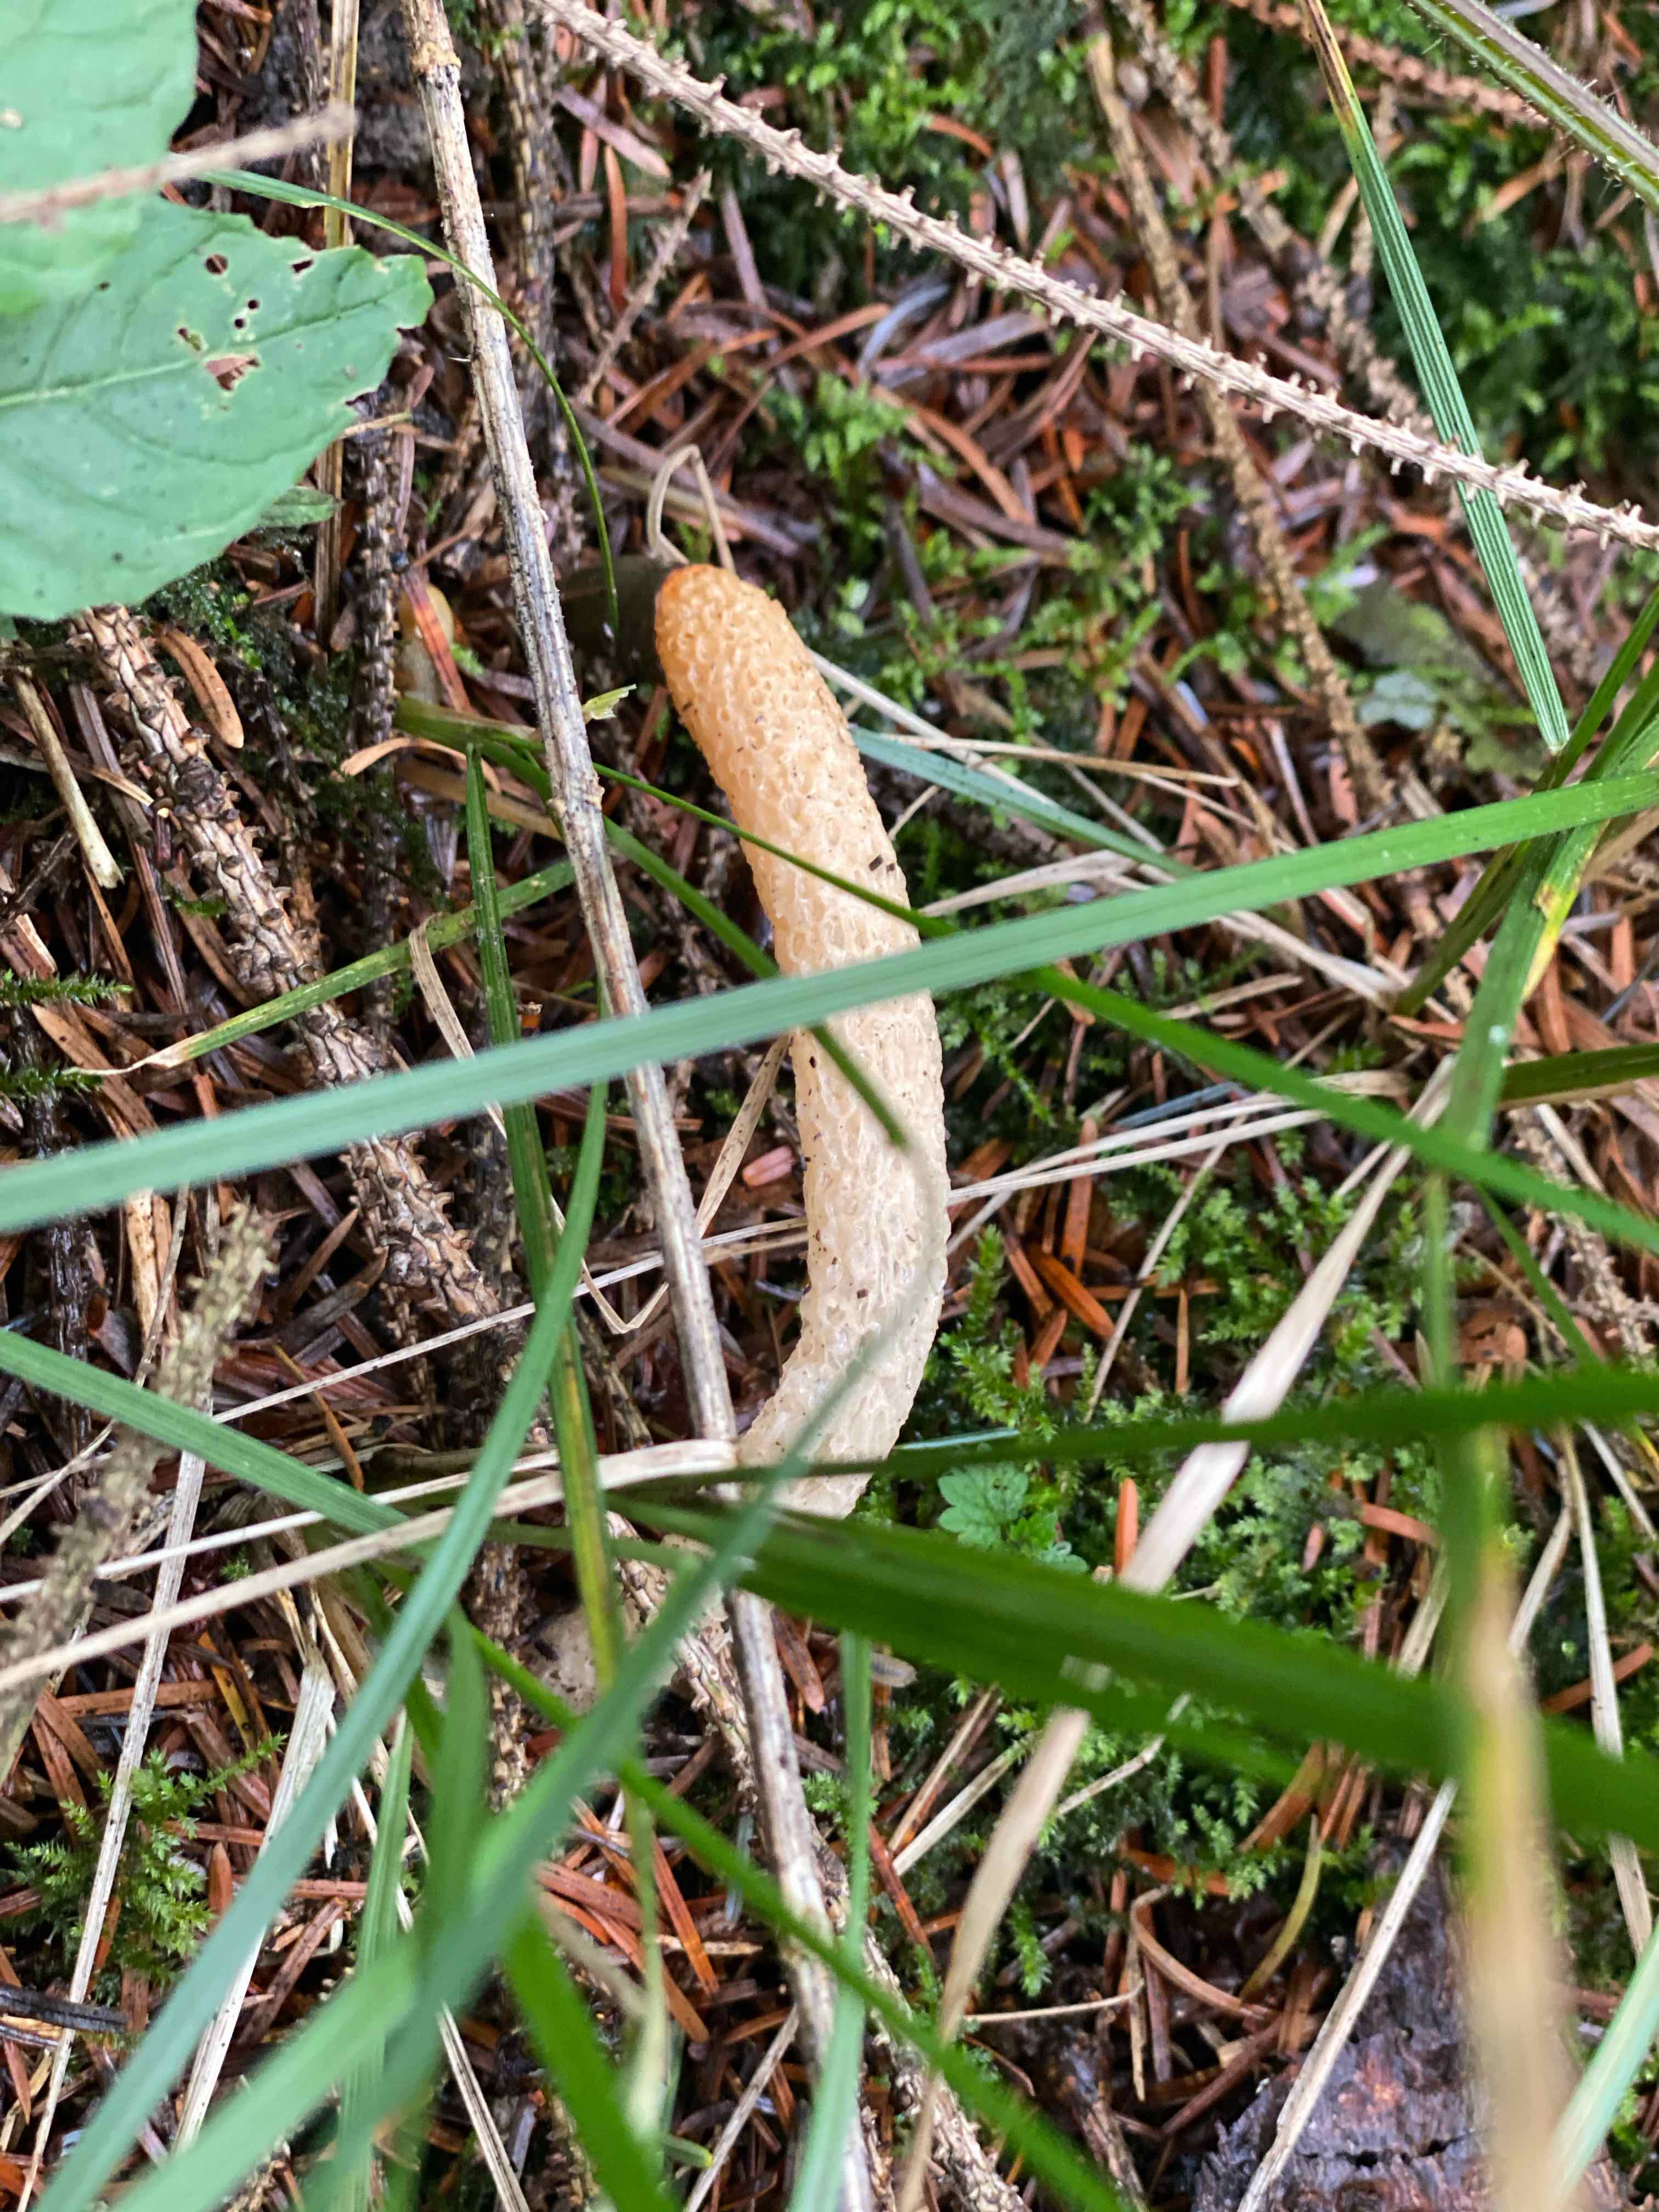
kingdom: Fungi
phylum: Basidiomycota
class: Agaricomycetes
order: Phallales
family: Phallaceae
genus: Mutinus
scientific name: Mutinus caninus
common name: hunde-stinksvamp
